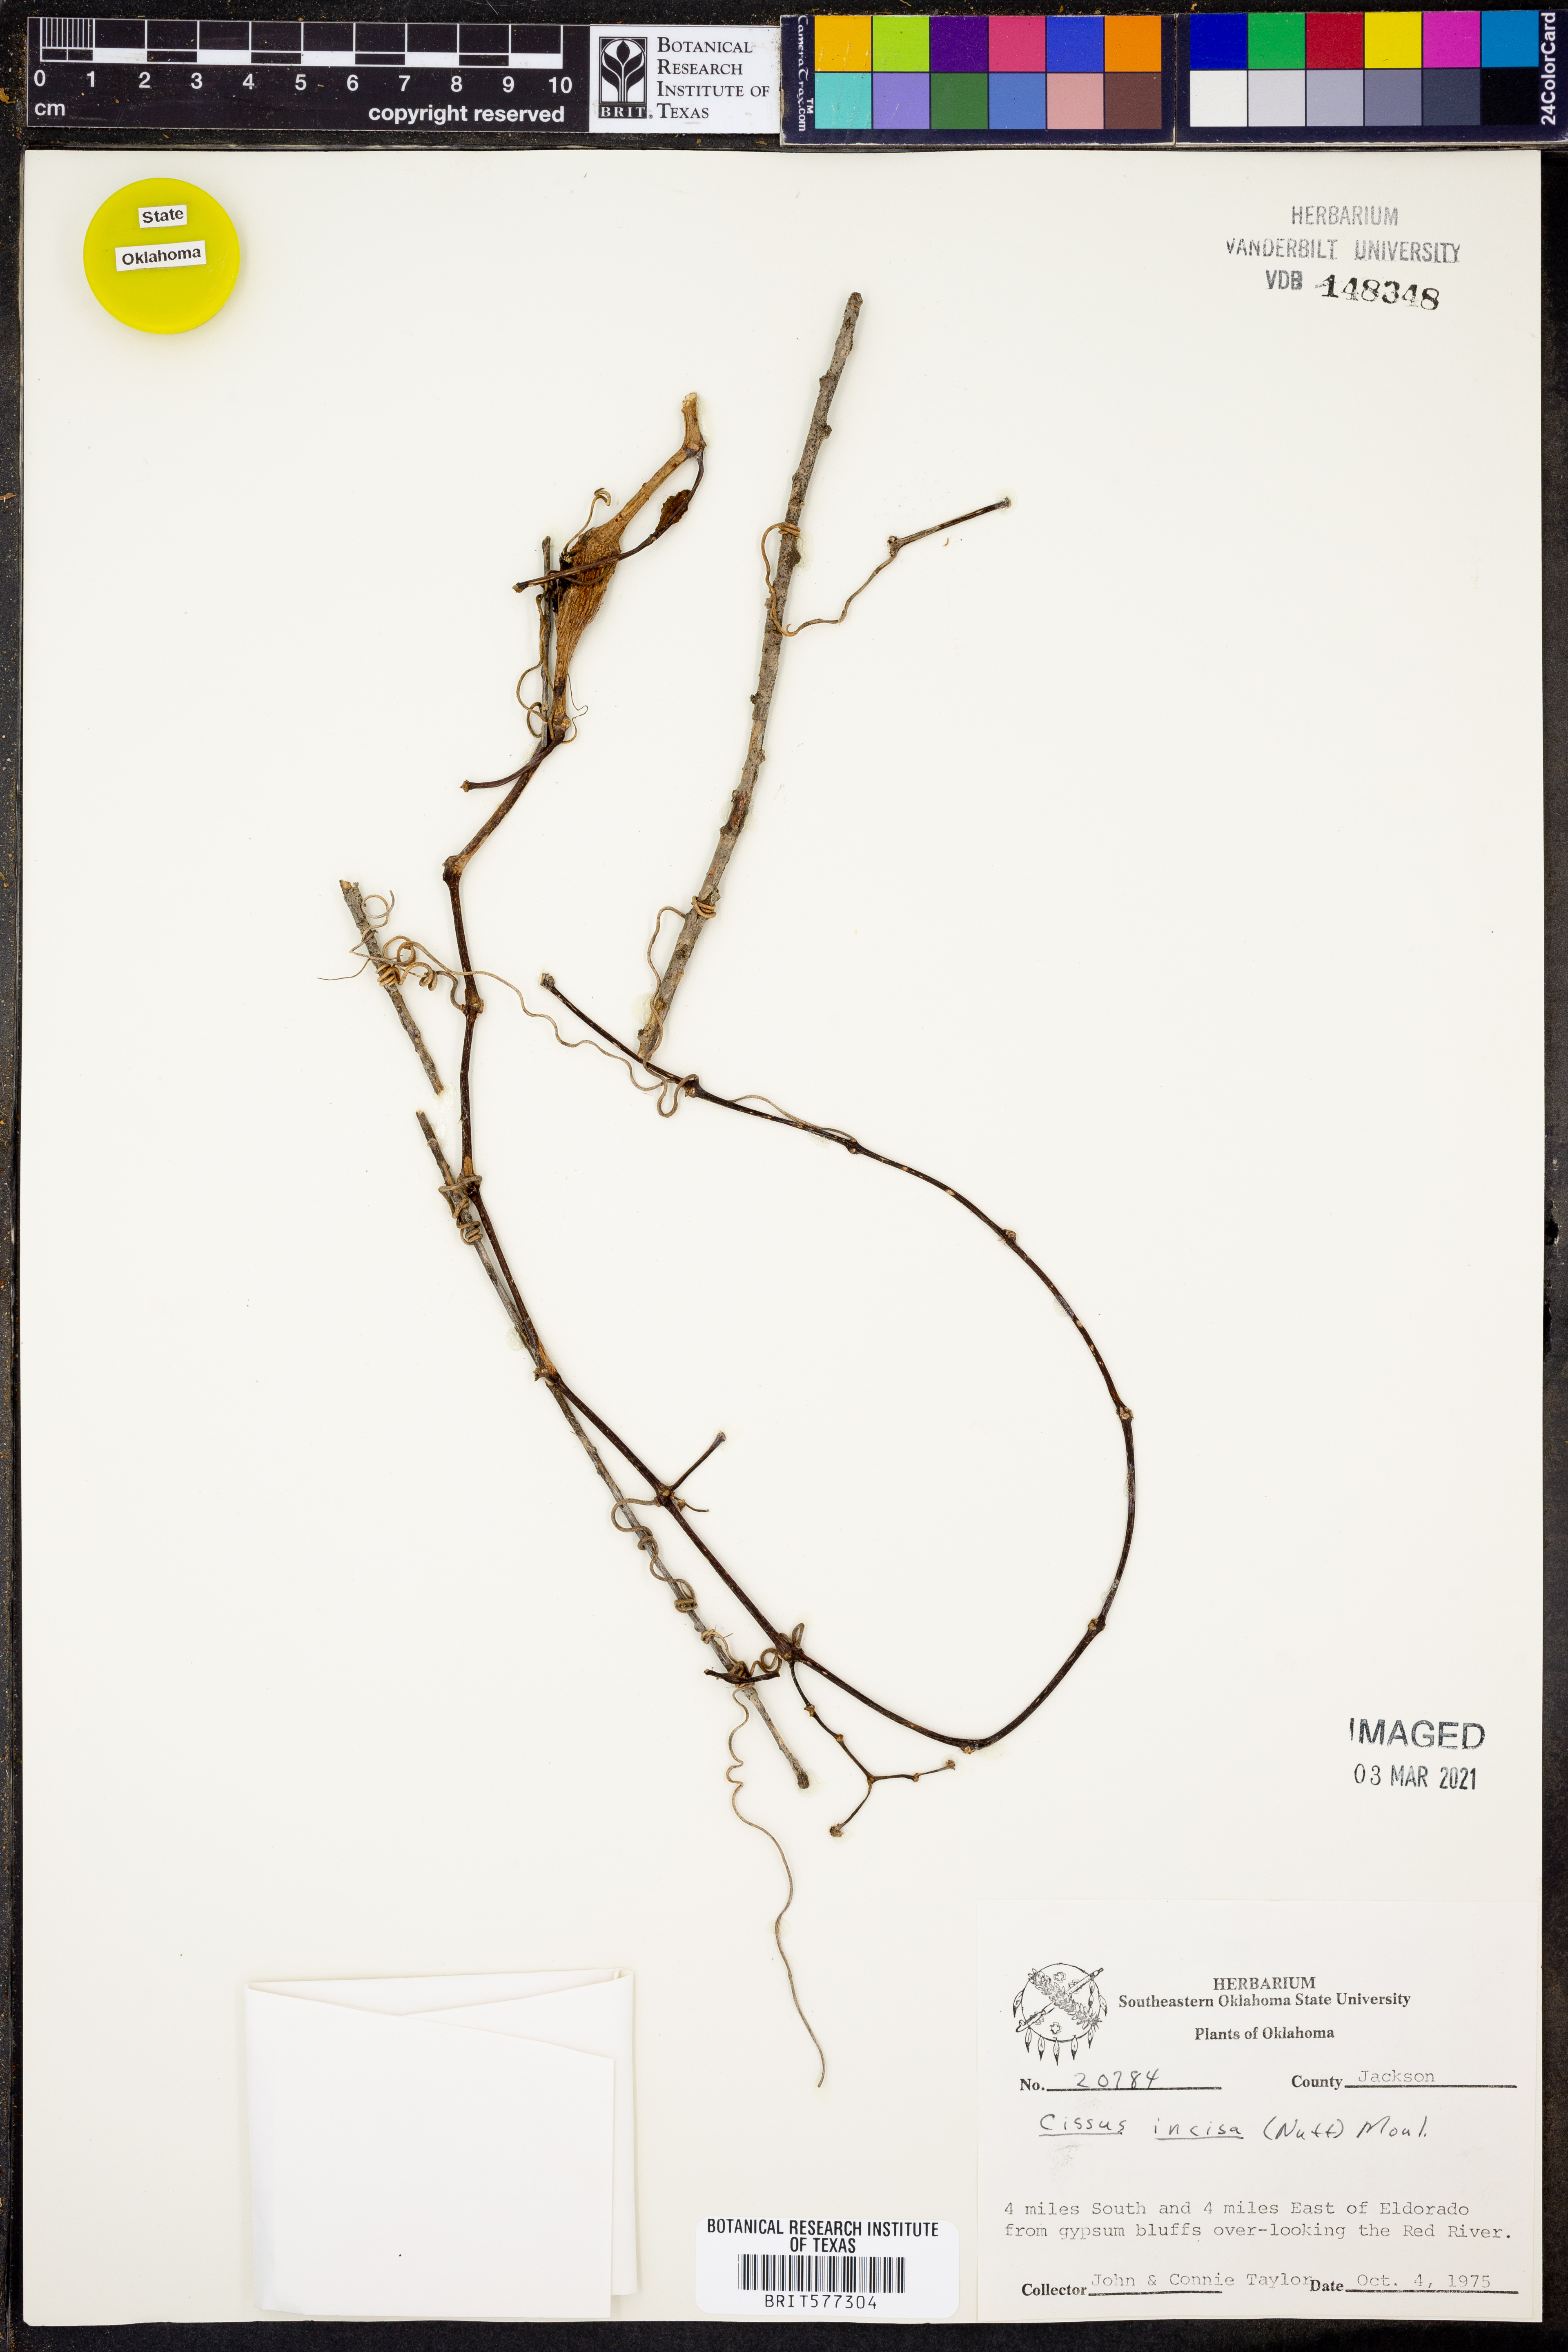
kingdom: Plantae
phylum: Tracheophyta
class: Magnoliopsida
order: Vitales
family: Vitaceae
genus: Cissus
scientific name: Cissus trifoliata
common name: Vine-sorrel
